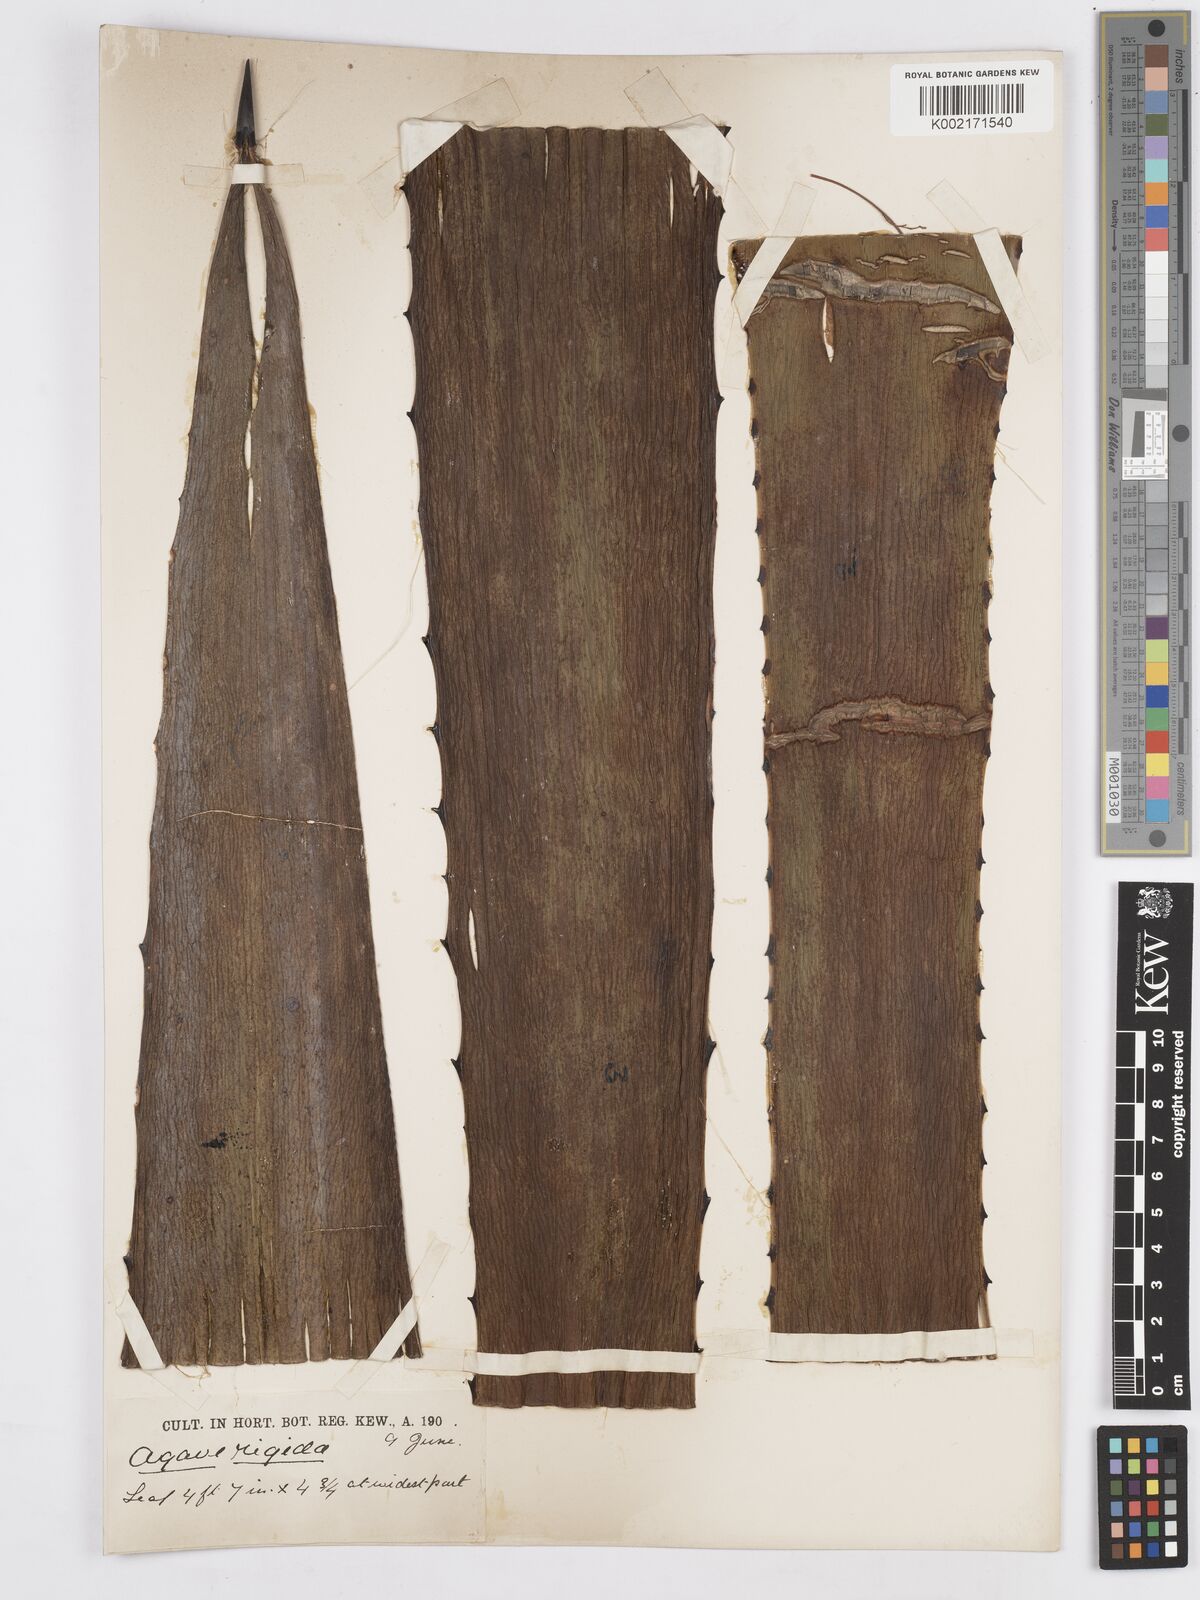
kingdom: Plantae
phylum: Tracheophyta
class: Liliopsida
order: Asparagales
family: Asparagaceae
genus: Agave
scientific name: Agave
